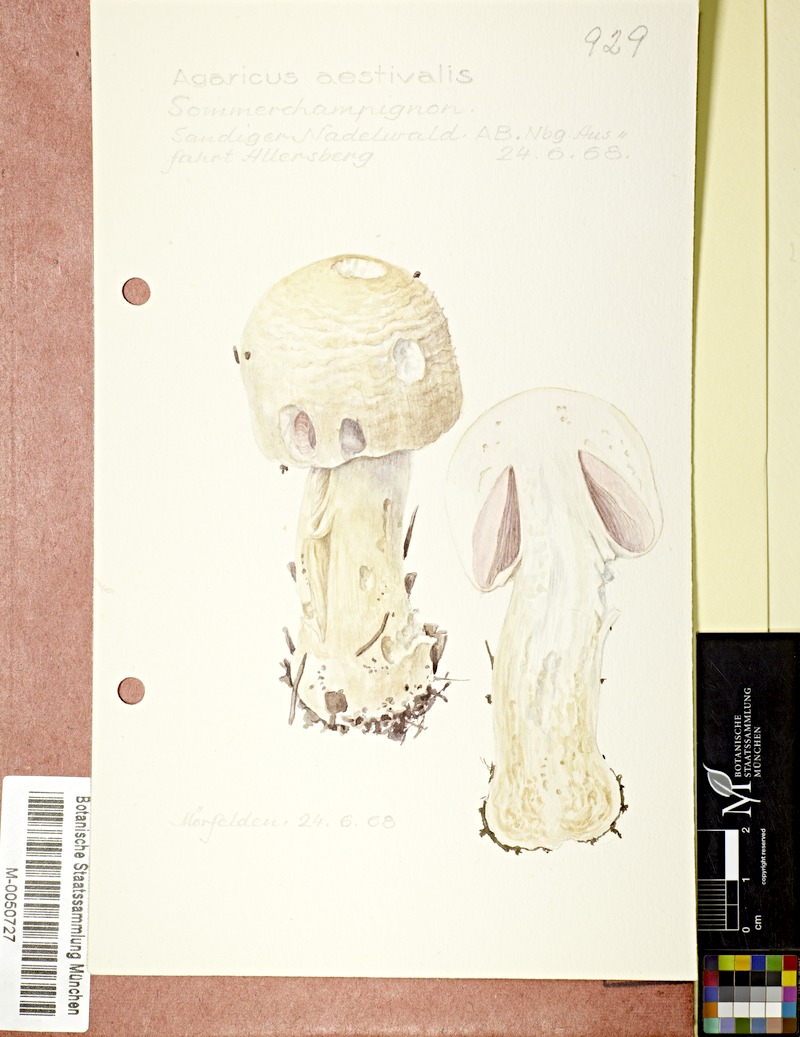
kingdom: Fungi
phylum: Basidiomycota
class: Agaricomycetes
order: Agaricales
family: Agaricaceae
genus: Agaricus
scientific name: Agaricus altipes
